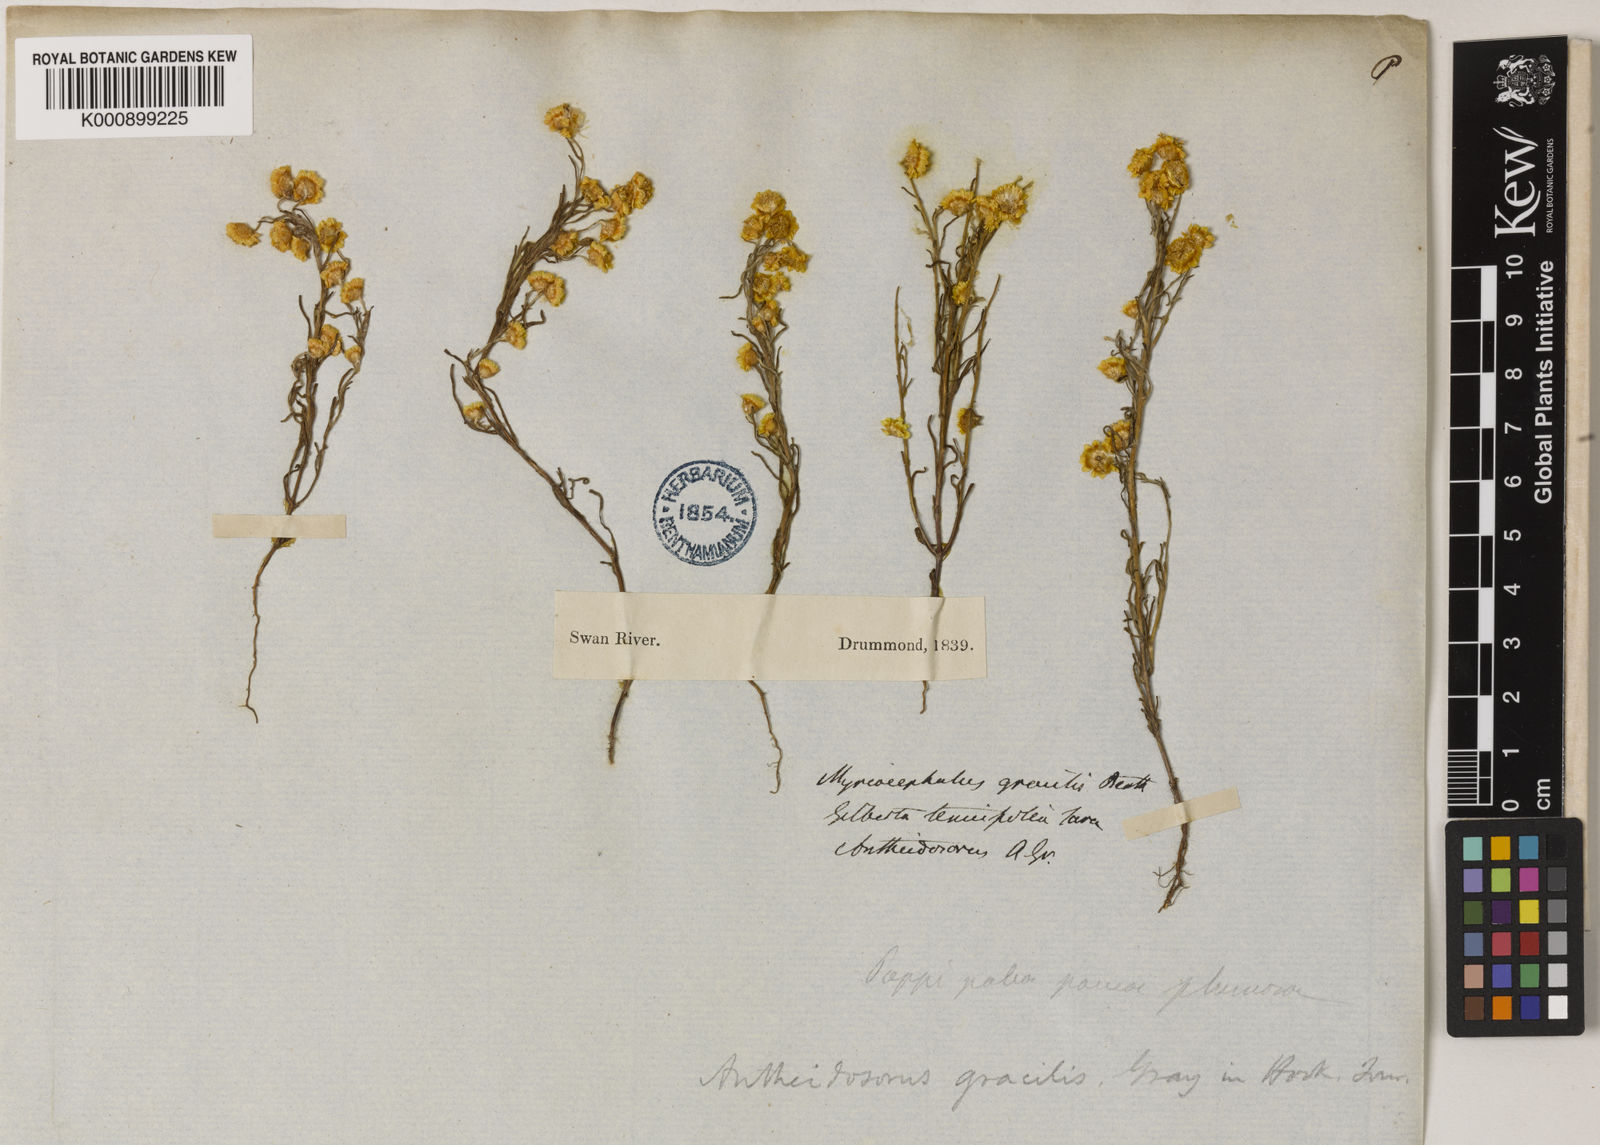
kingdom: Plantae
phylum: Tracheophyta
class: Magnoliopsida
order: Asterales
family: Asteraceae
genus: Gilberta
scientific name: Gilberta
